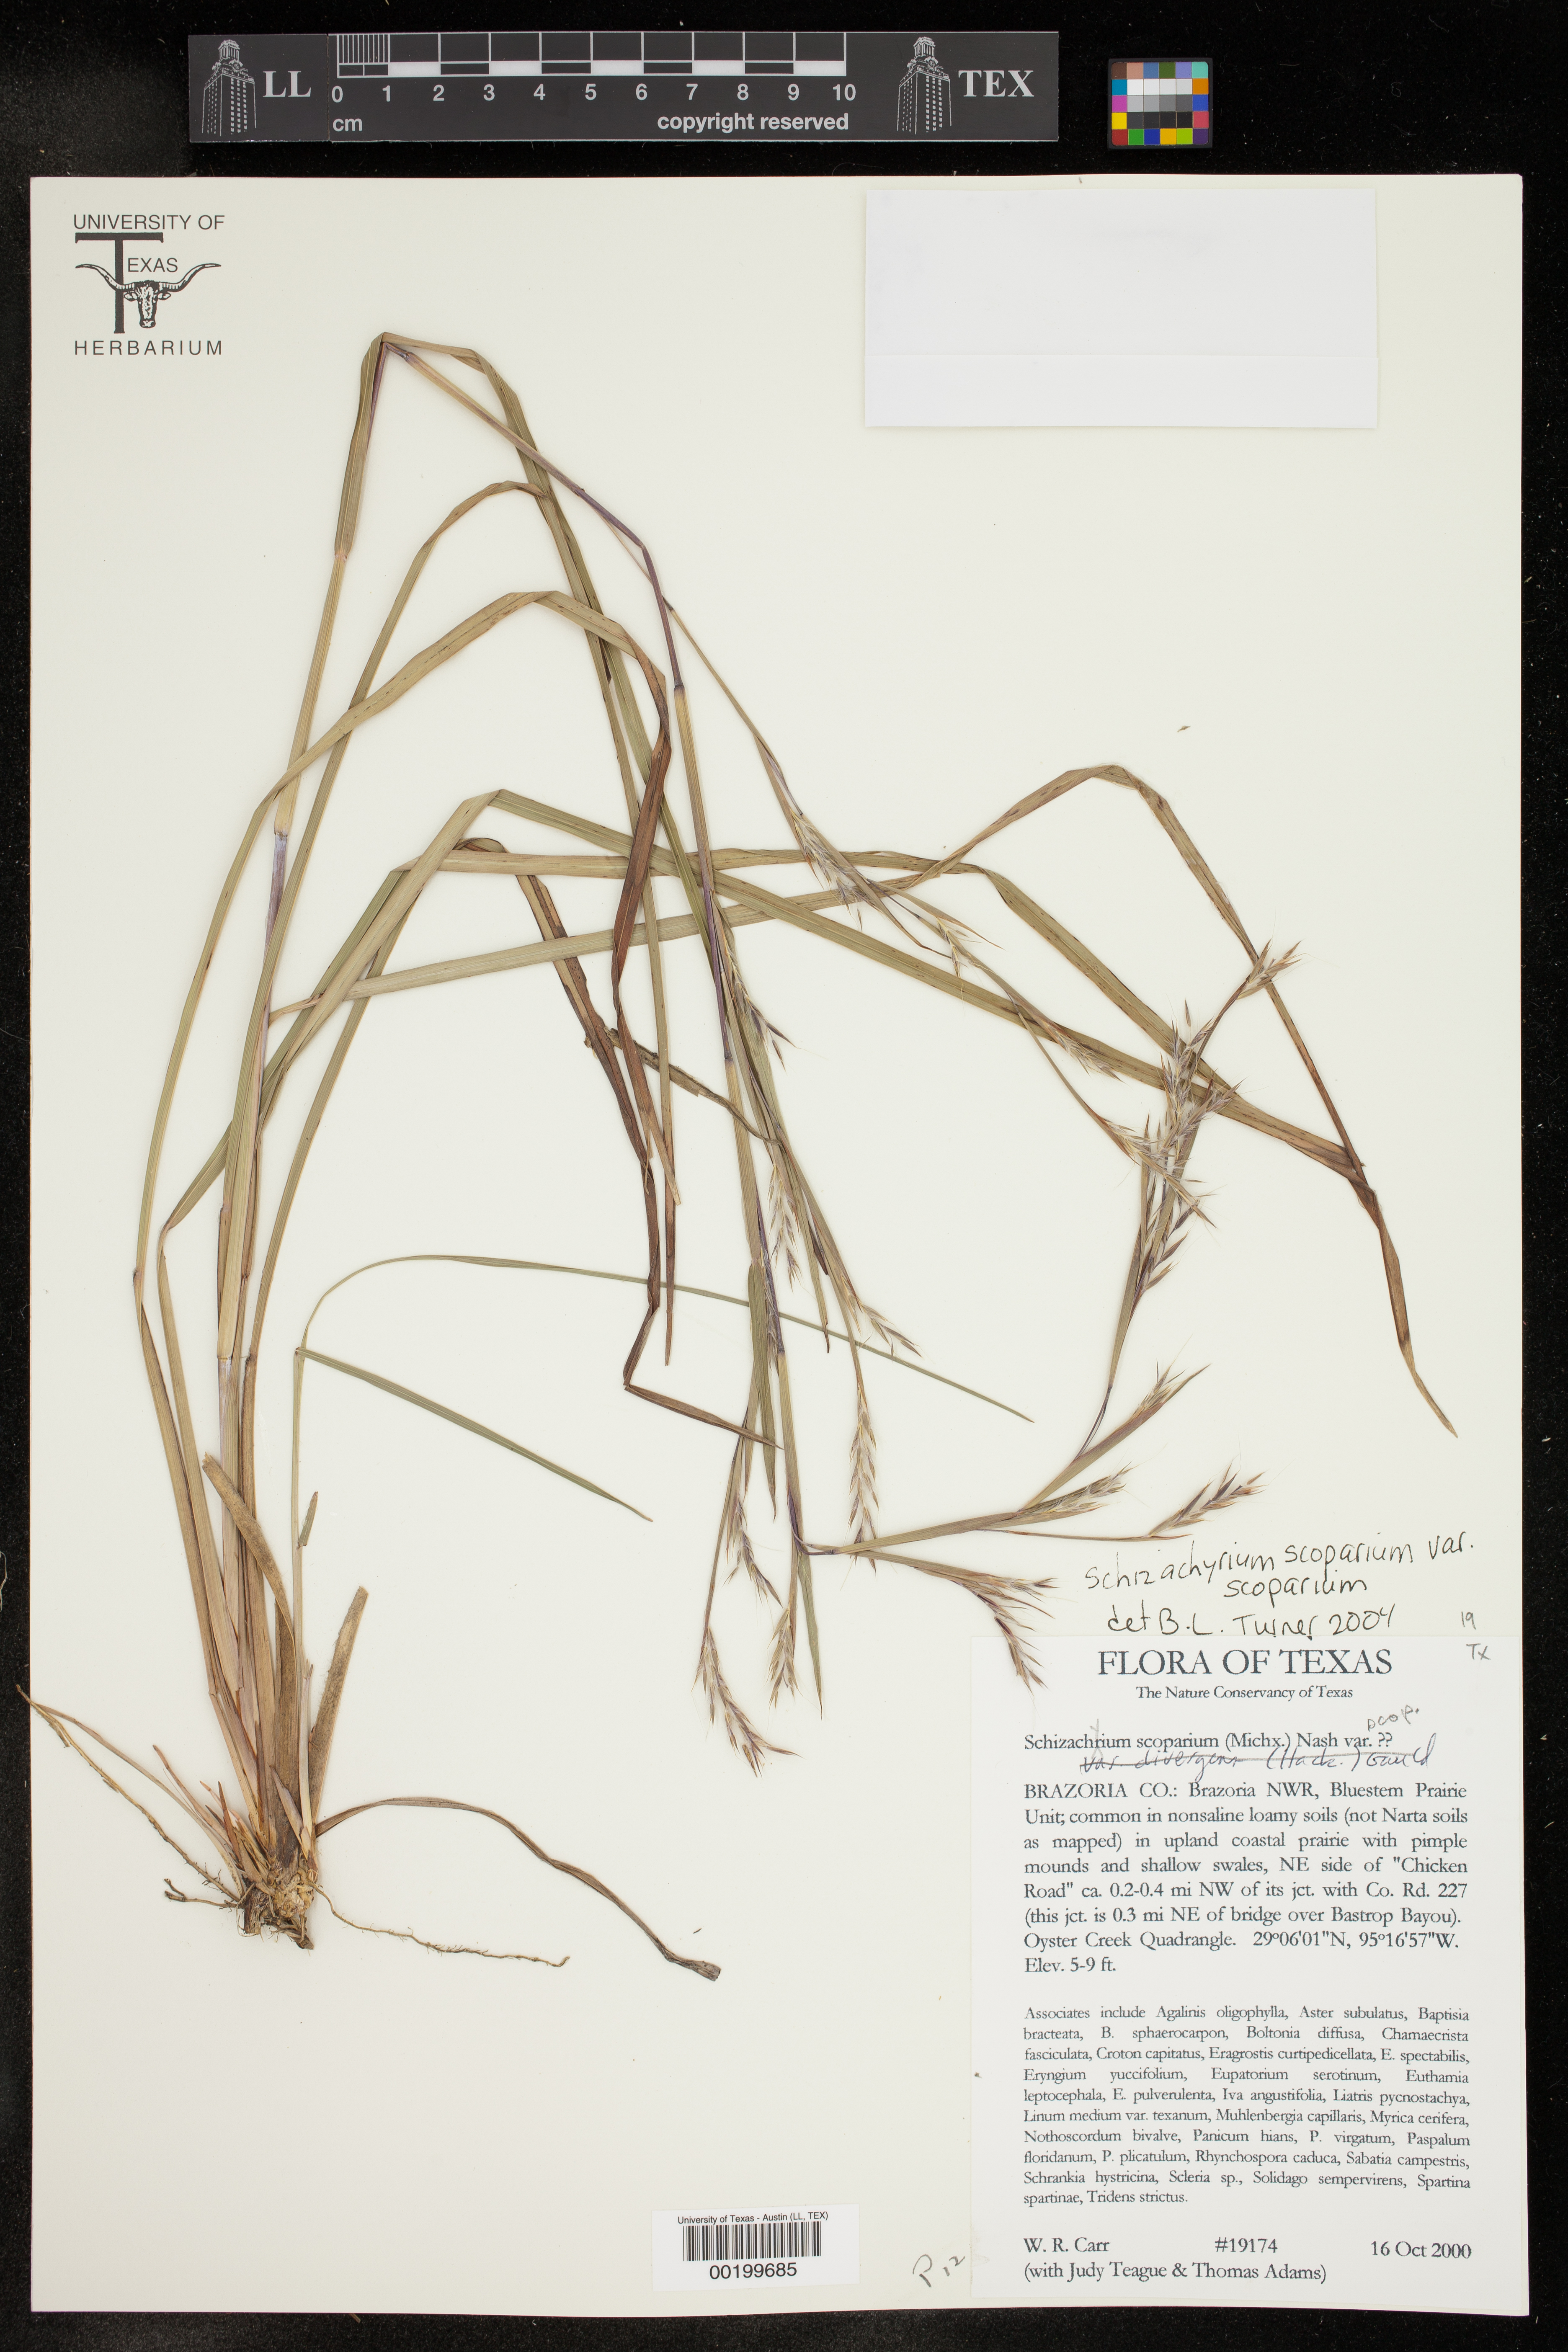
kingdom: Plantae
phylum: Tracheophyta
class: Liliopsida
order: Poales
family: Poaceae
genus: Schizachyrium
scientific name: Schizachyrium scoparium
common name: Little bluestem
